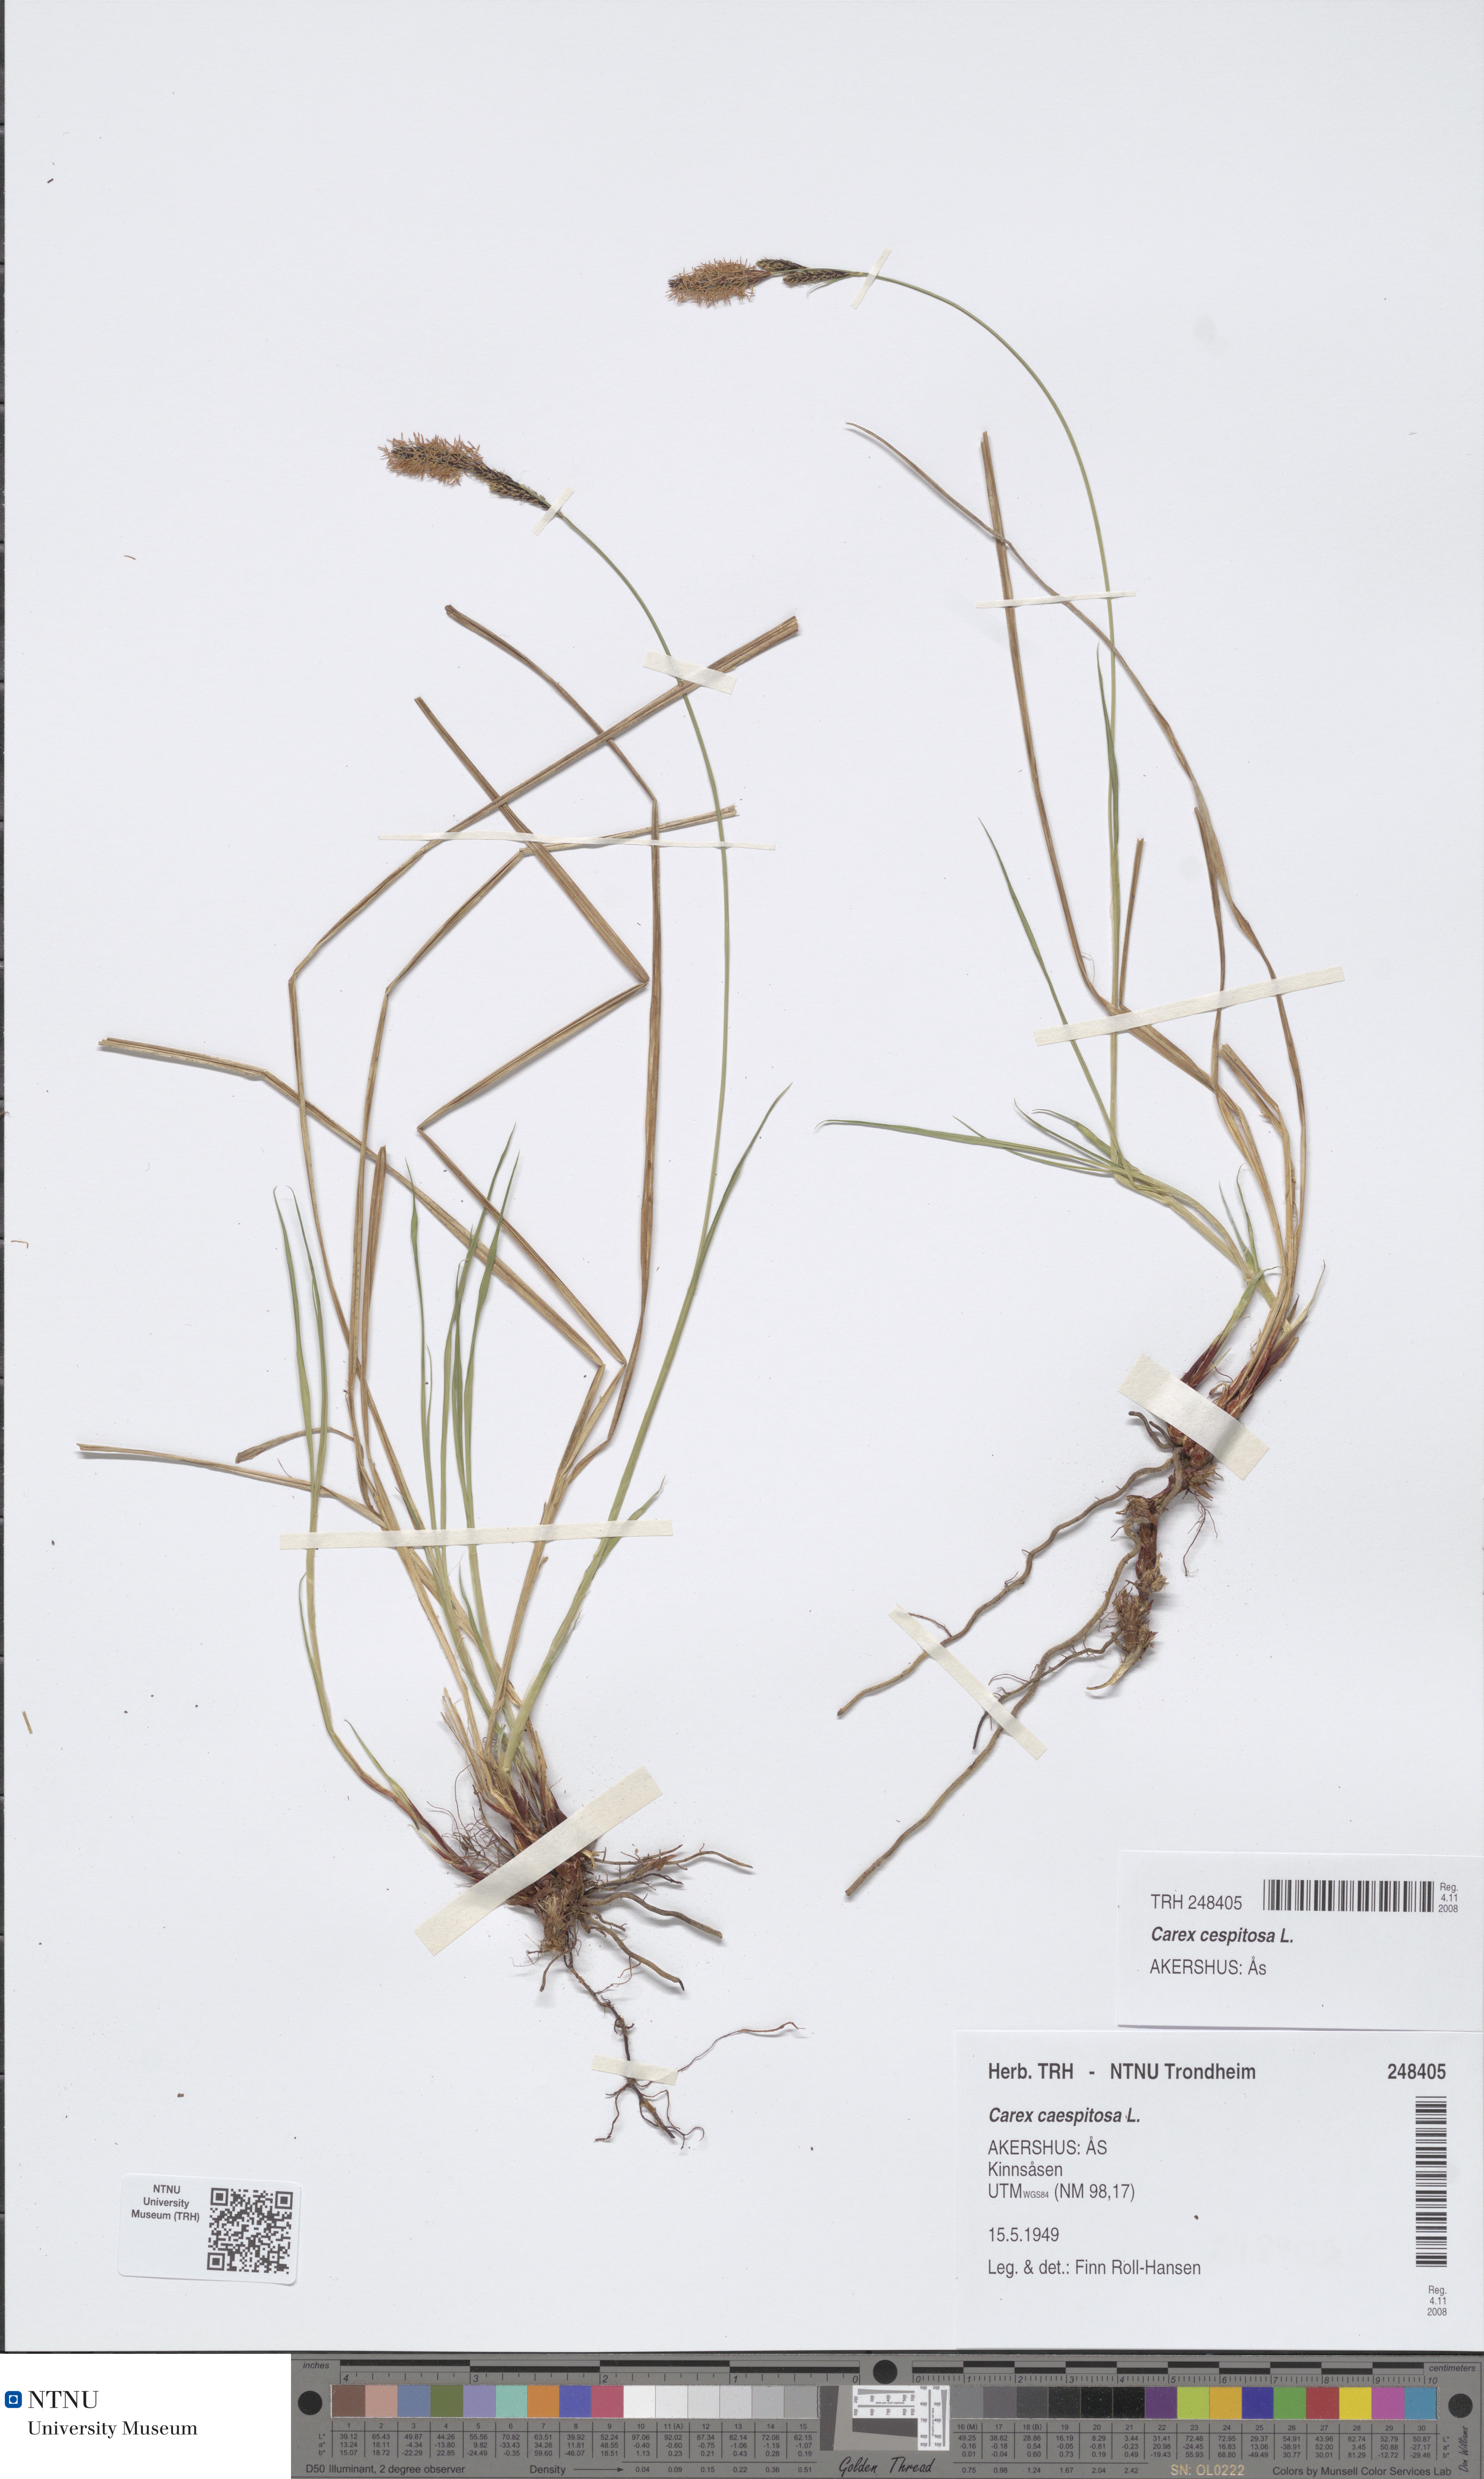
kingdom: Plantae
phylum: Tracheophyta
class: Liliopsida
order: Poales
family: Cyperaceae
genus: Carex
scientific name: Carex cespitosa
